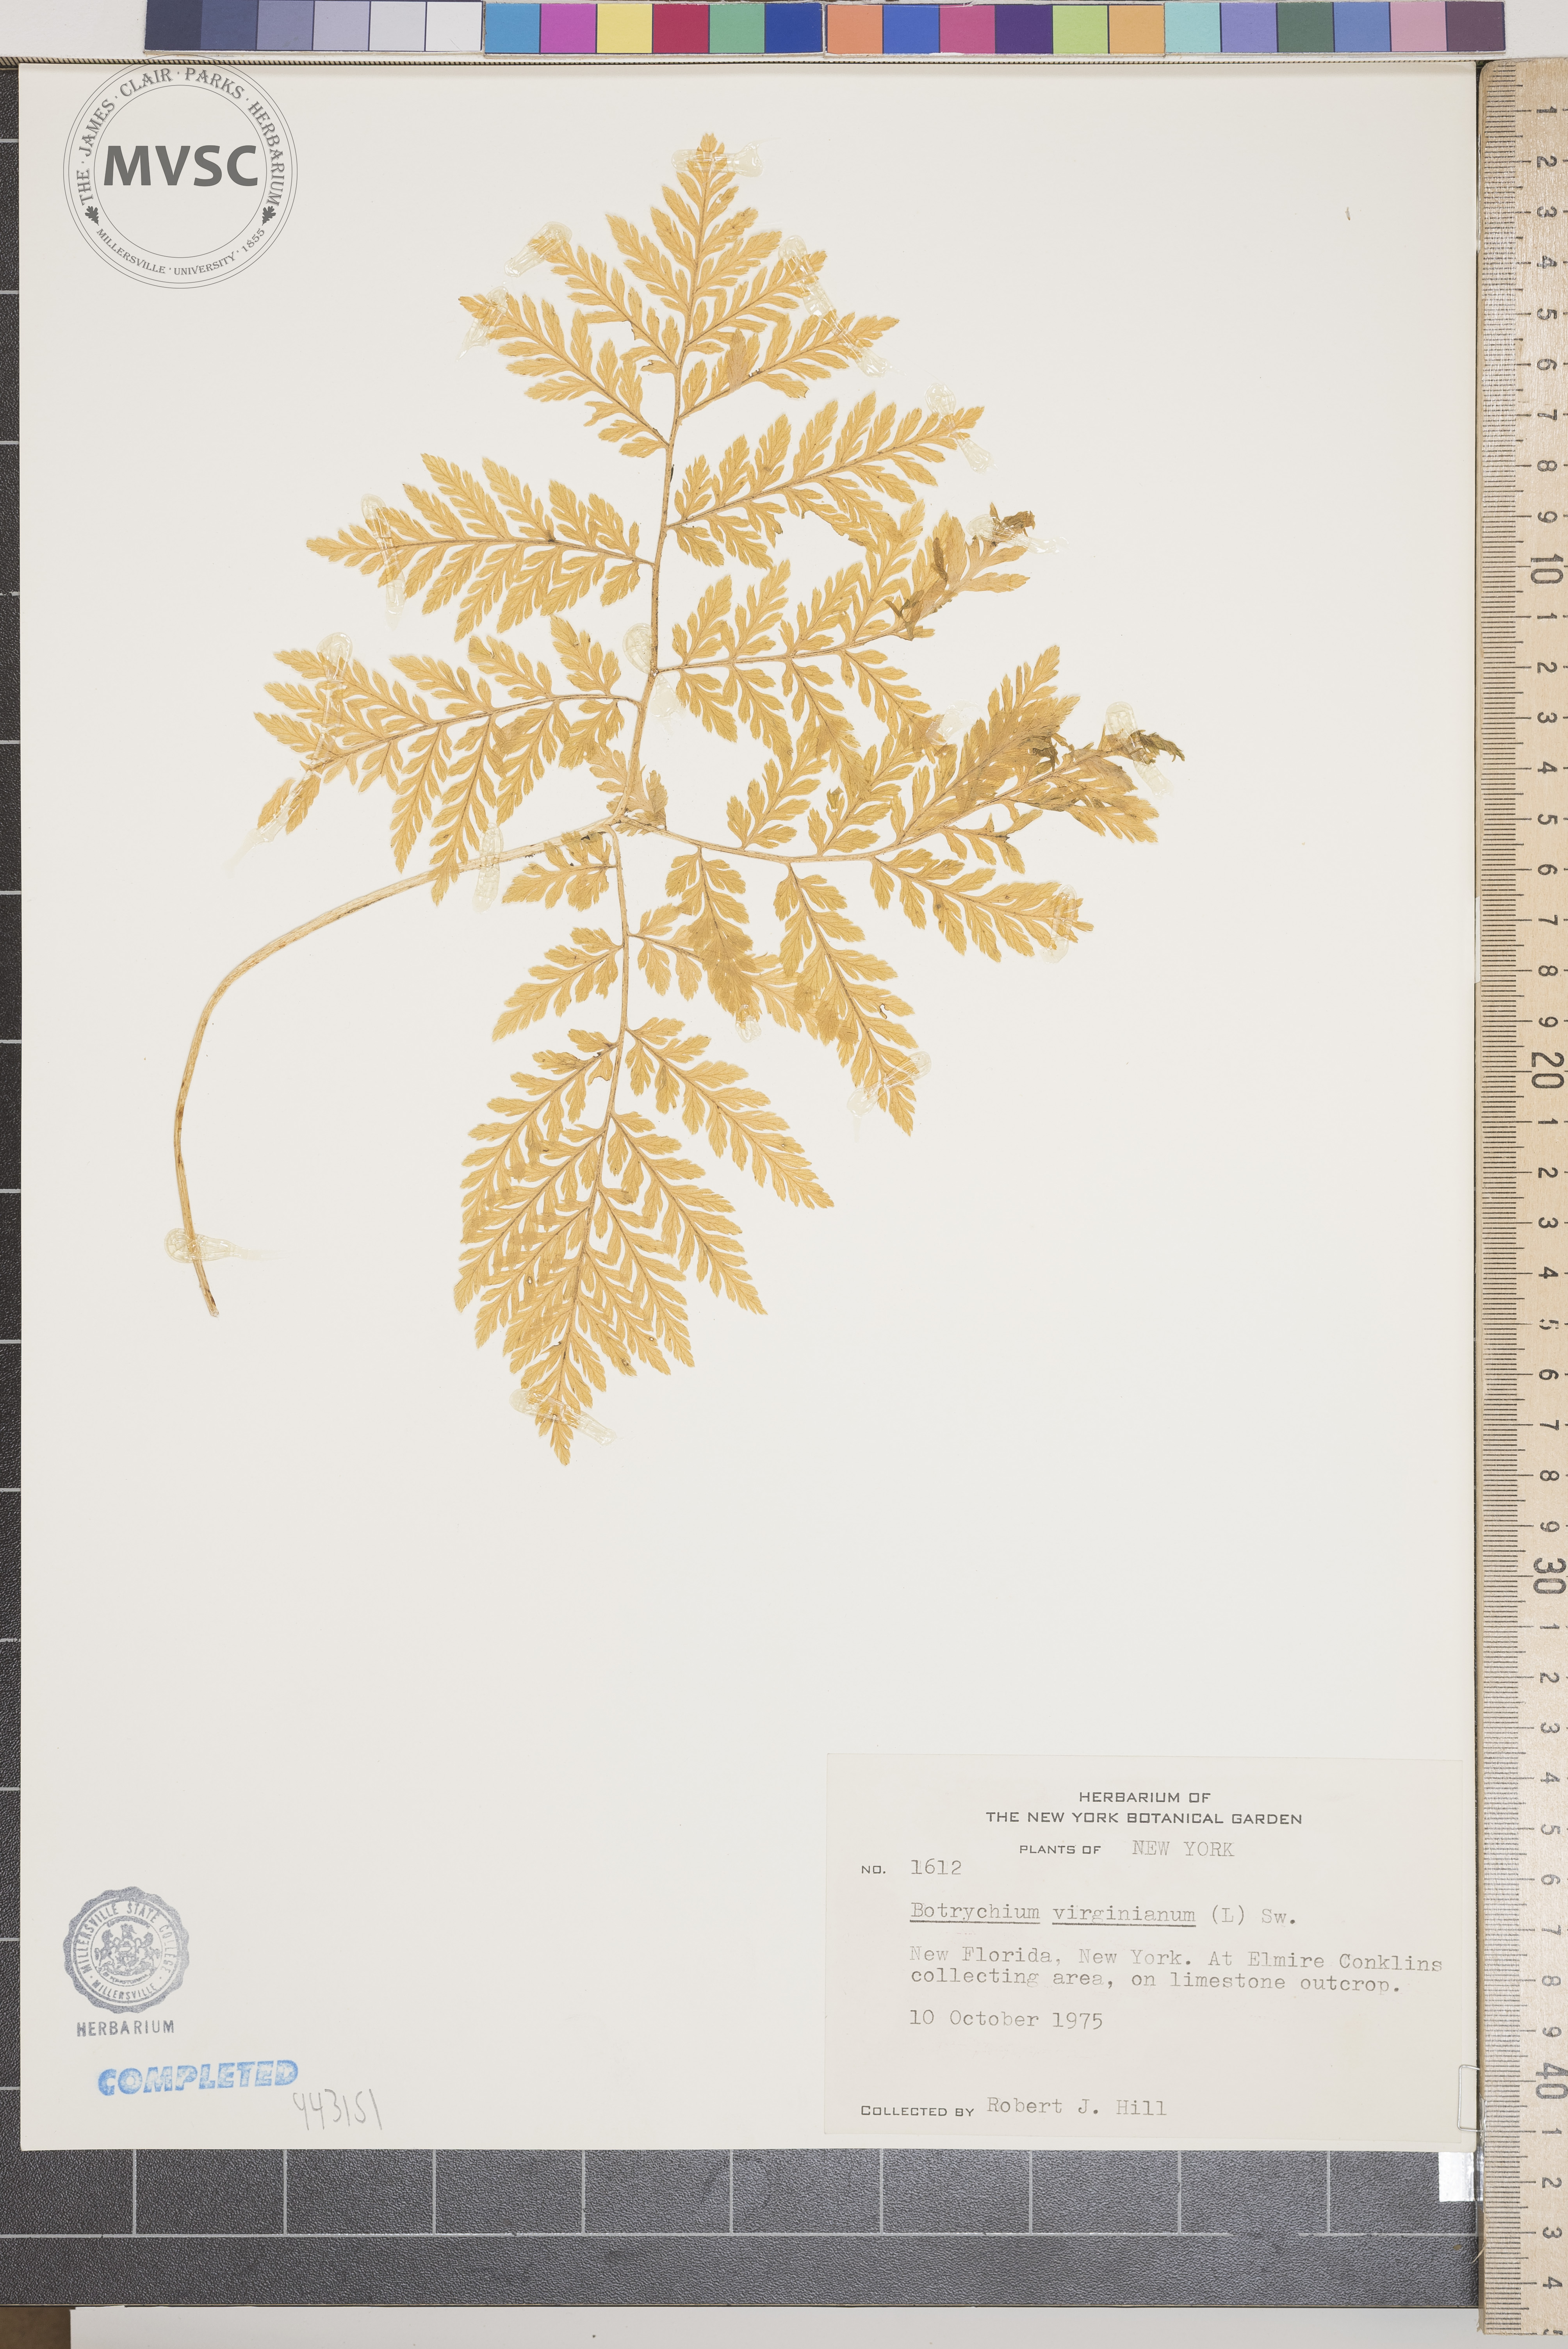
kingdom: Plantae
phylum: Tracheophyta
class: Polypodiopsida
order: Ophioglossales
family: Ophioglossaceae
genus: Botrypus
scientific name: Botrypus virginianus
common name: Common grapefern
